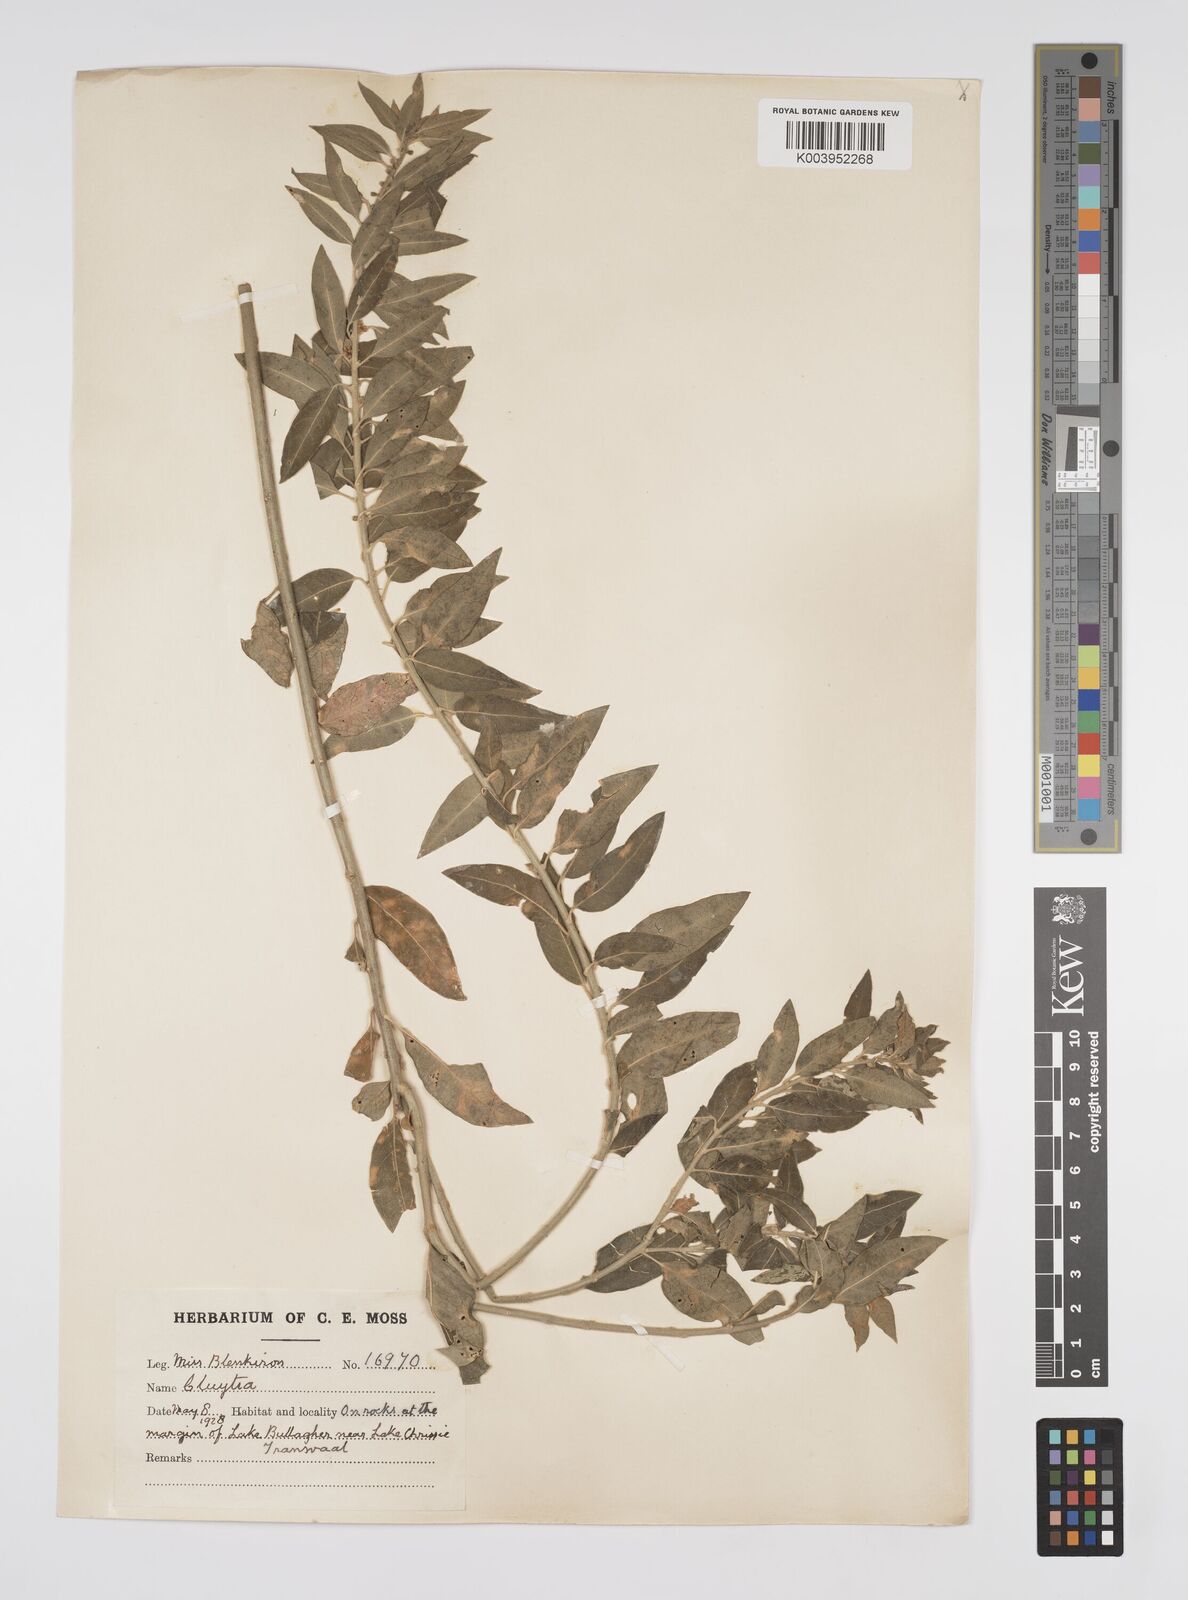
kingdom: Plantae
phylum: Tracheophyta
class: Magnoliopsida
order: Malpighiales
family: Peraceae
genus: Clutia
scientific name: Clutia affinis
